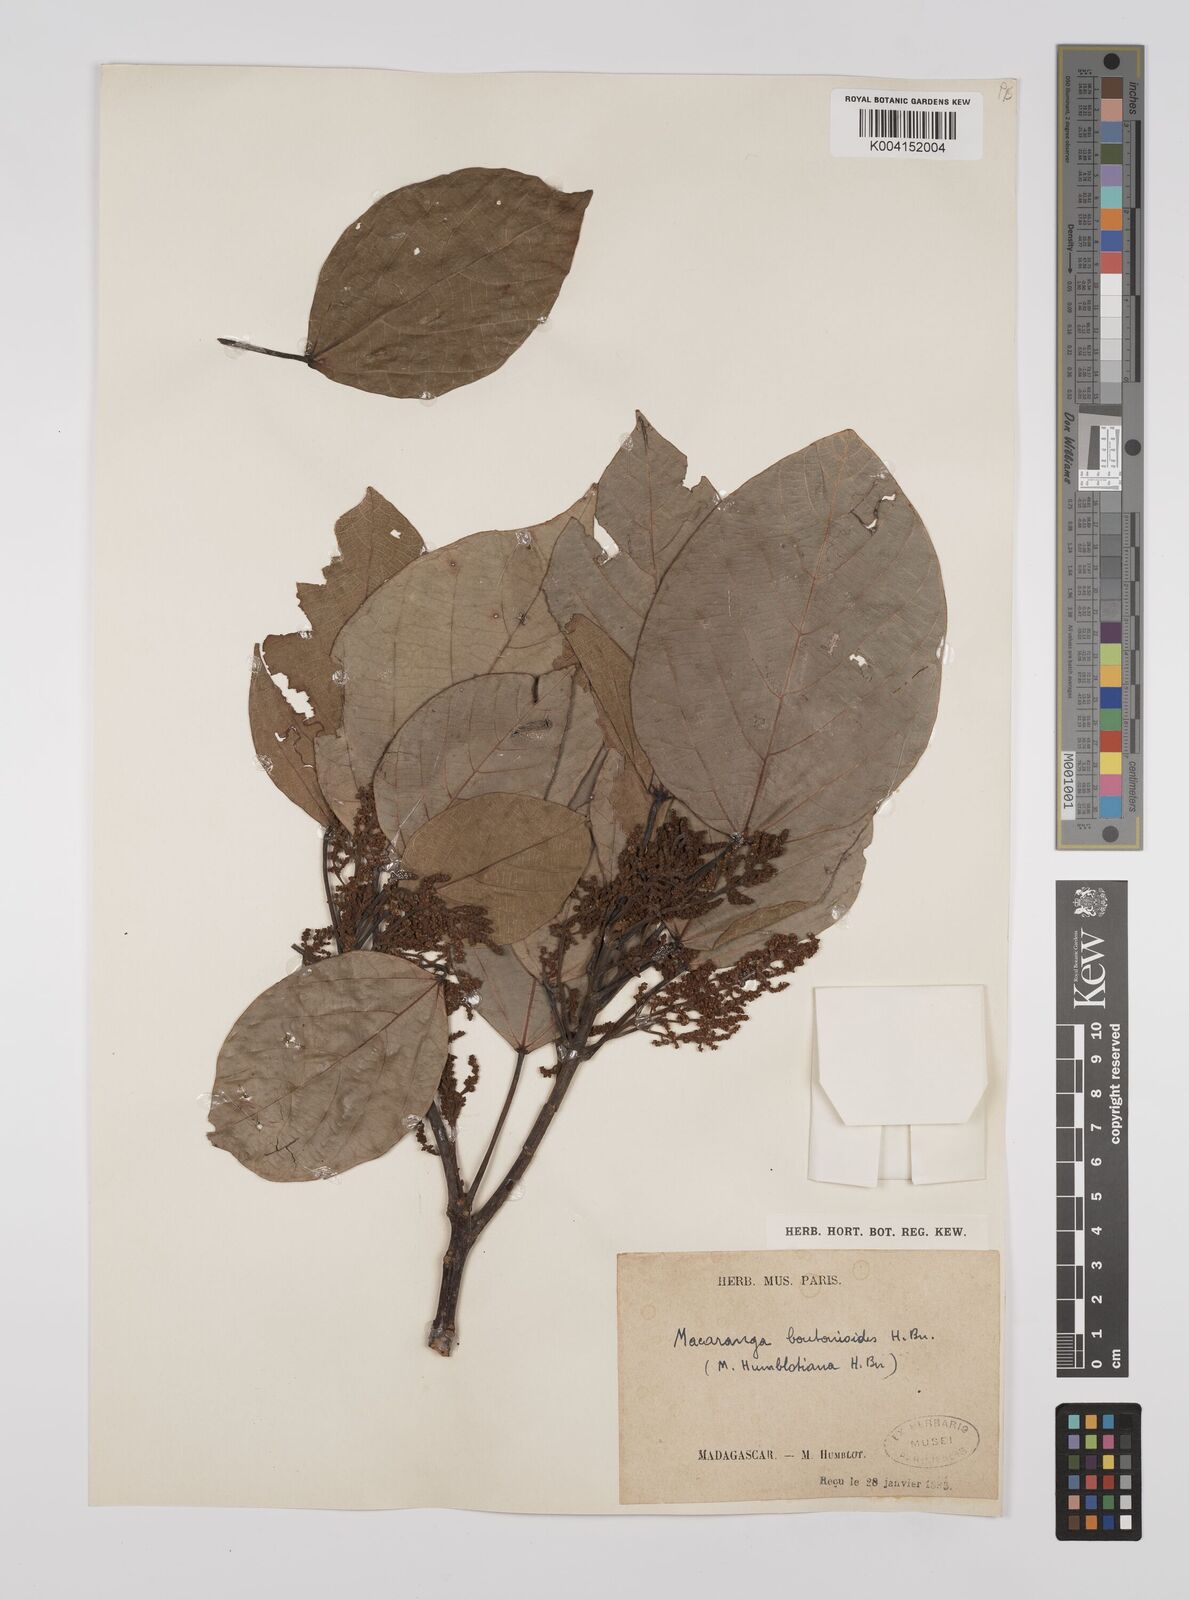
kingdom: Plantae
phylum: Tracheophyta
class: Magnoliopsida
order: Malpighiales
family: Euphorbiaceae
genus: Macaranga
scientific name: Macaranga
